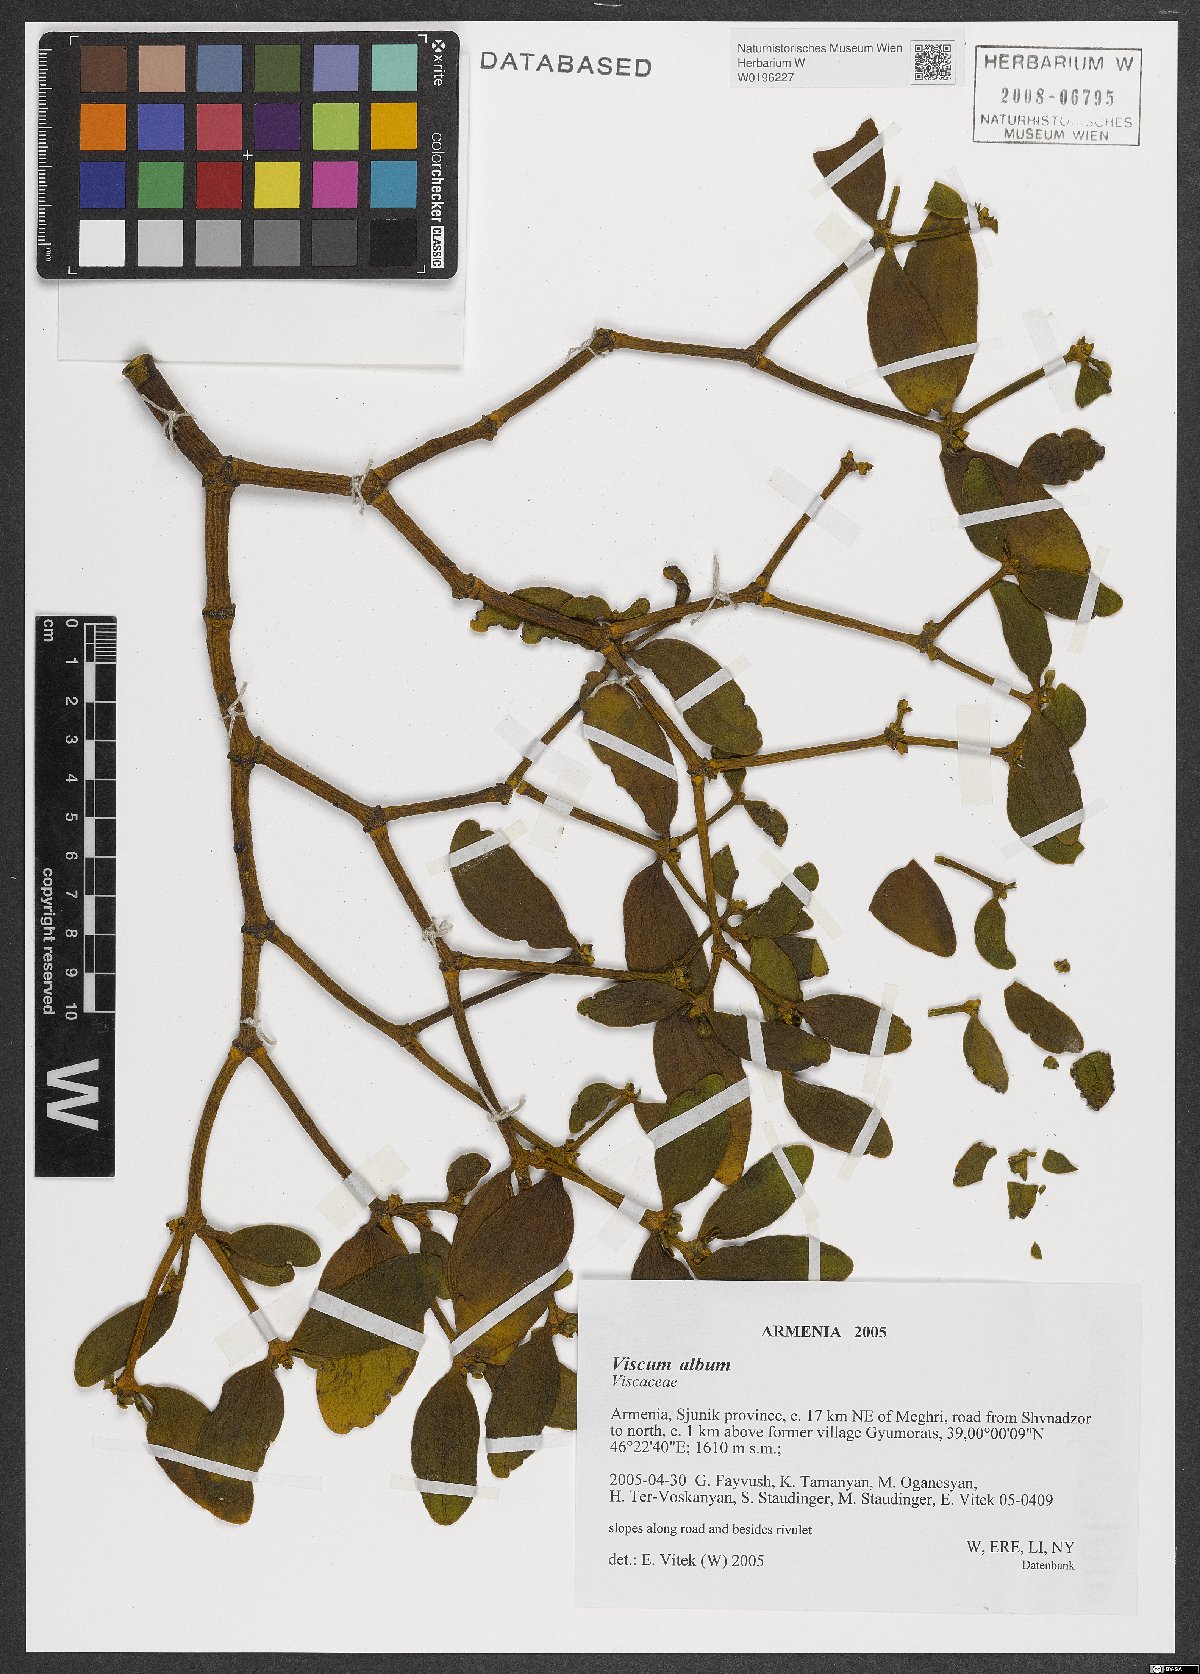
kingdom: Plantae
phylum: Tracheophyta
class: Magnoliopsida
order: Santalales
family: Viscaceae
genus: Viscum
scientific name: Viscum album
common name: Mistletoe
